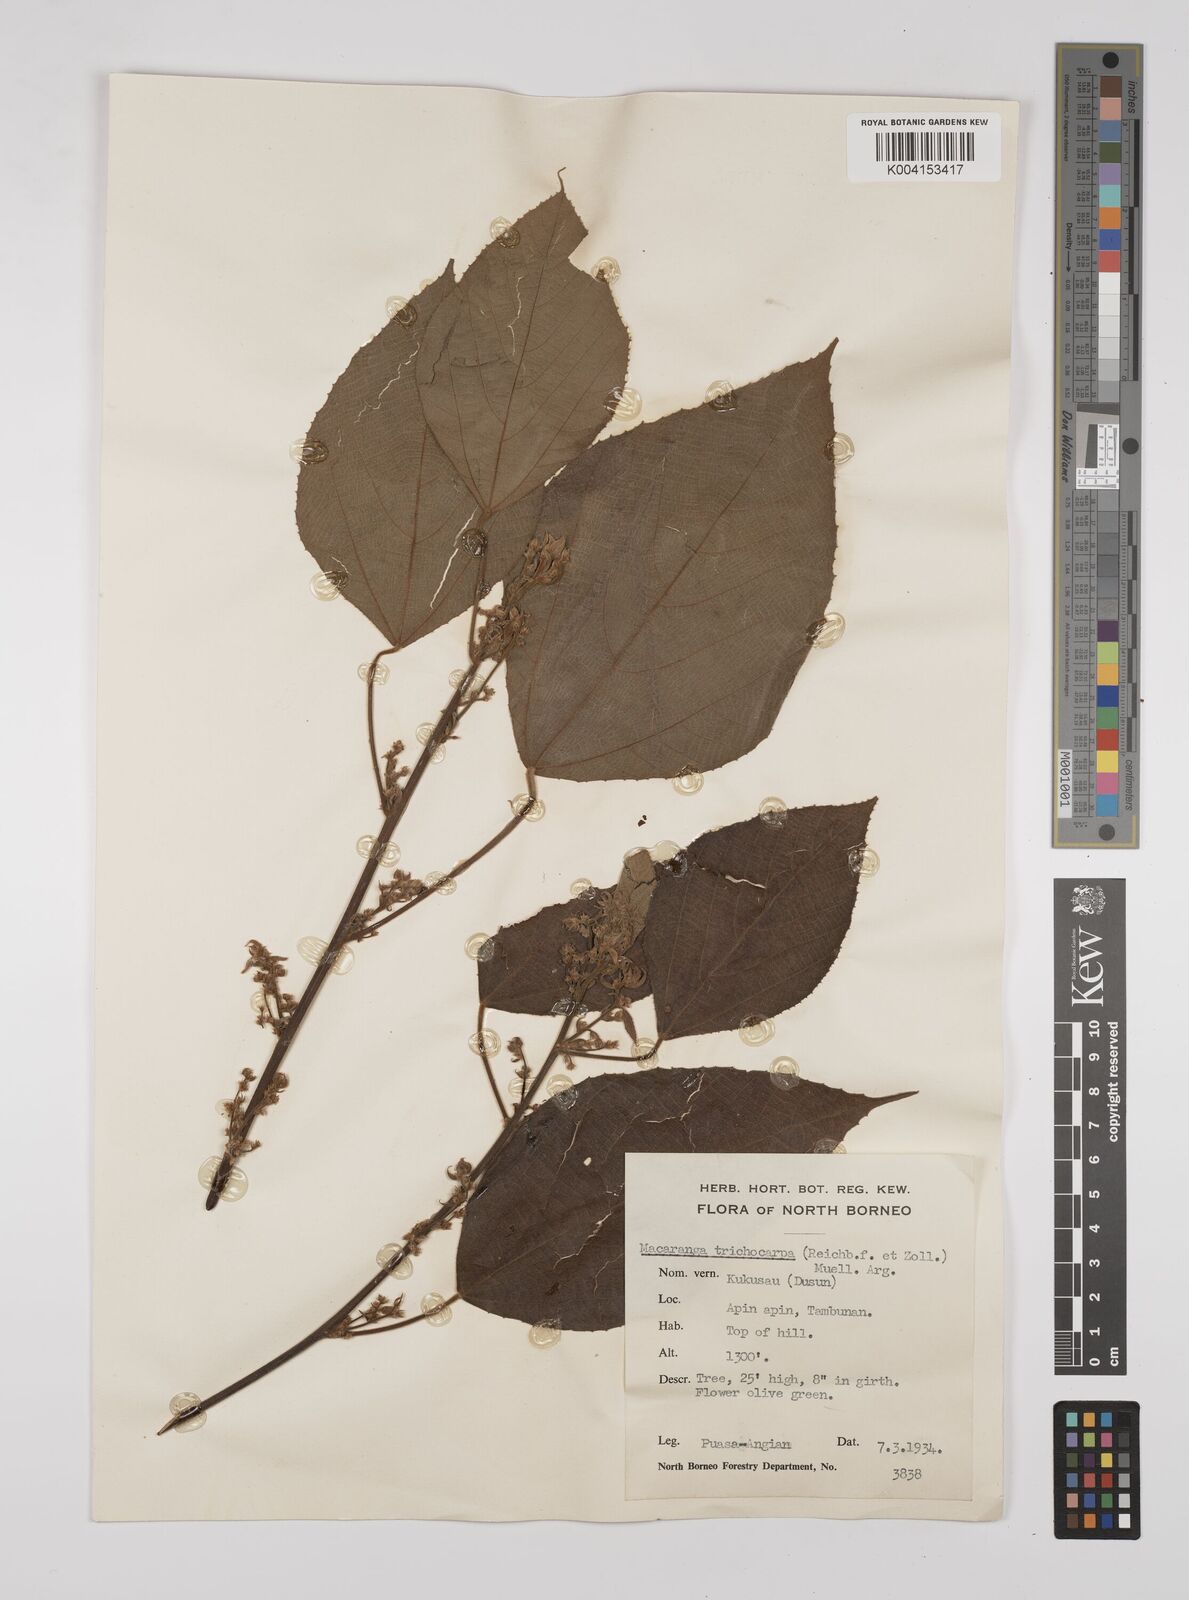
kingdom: Plantae
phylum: Tracheophyta
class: Magnoliopsida
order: Malpighiales
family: Euphorbiaceae
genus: Macaranga
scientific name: Macaranga trichocarpa
